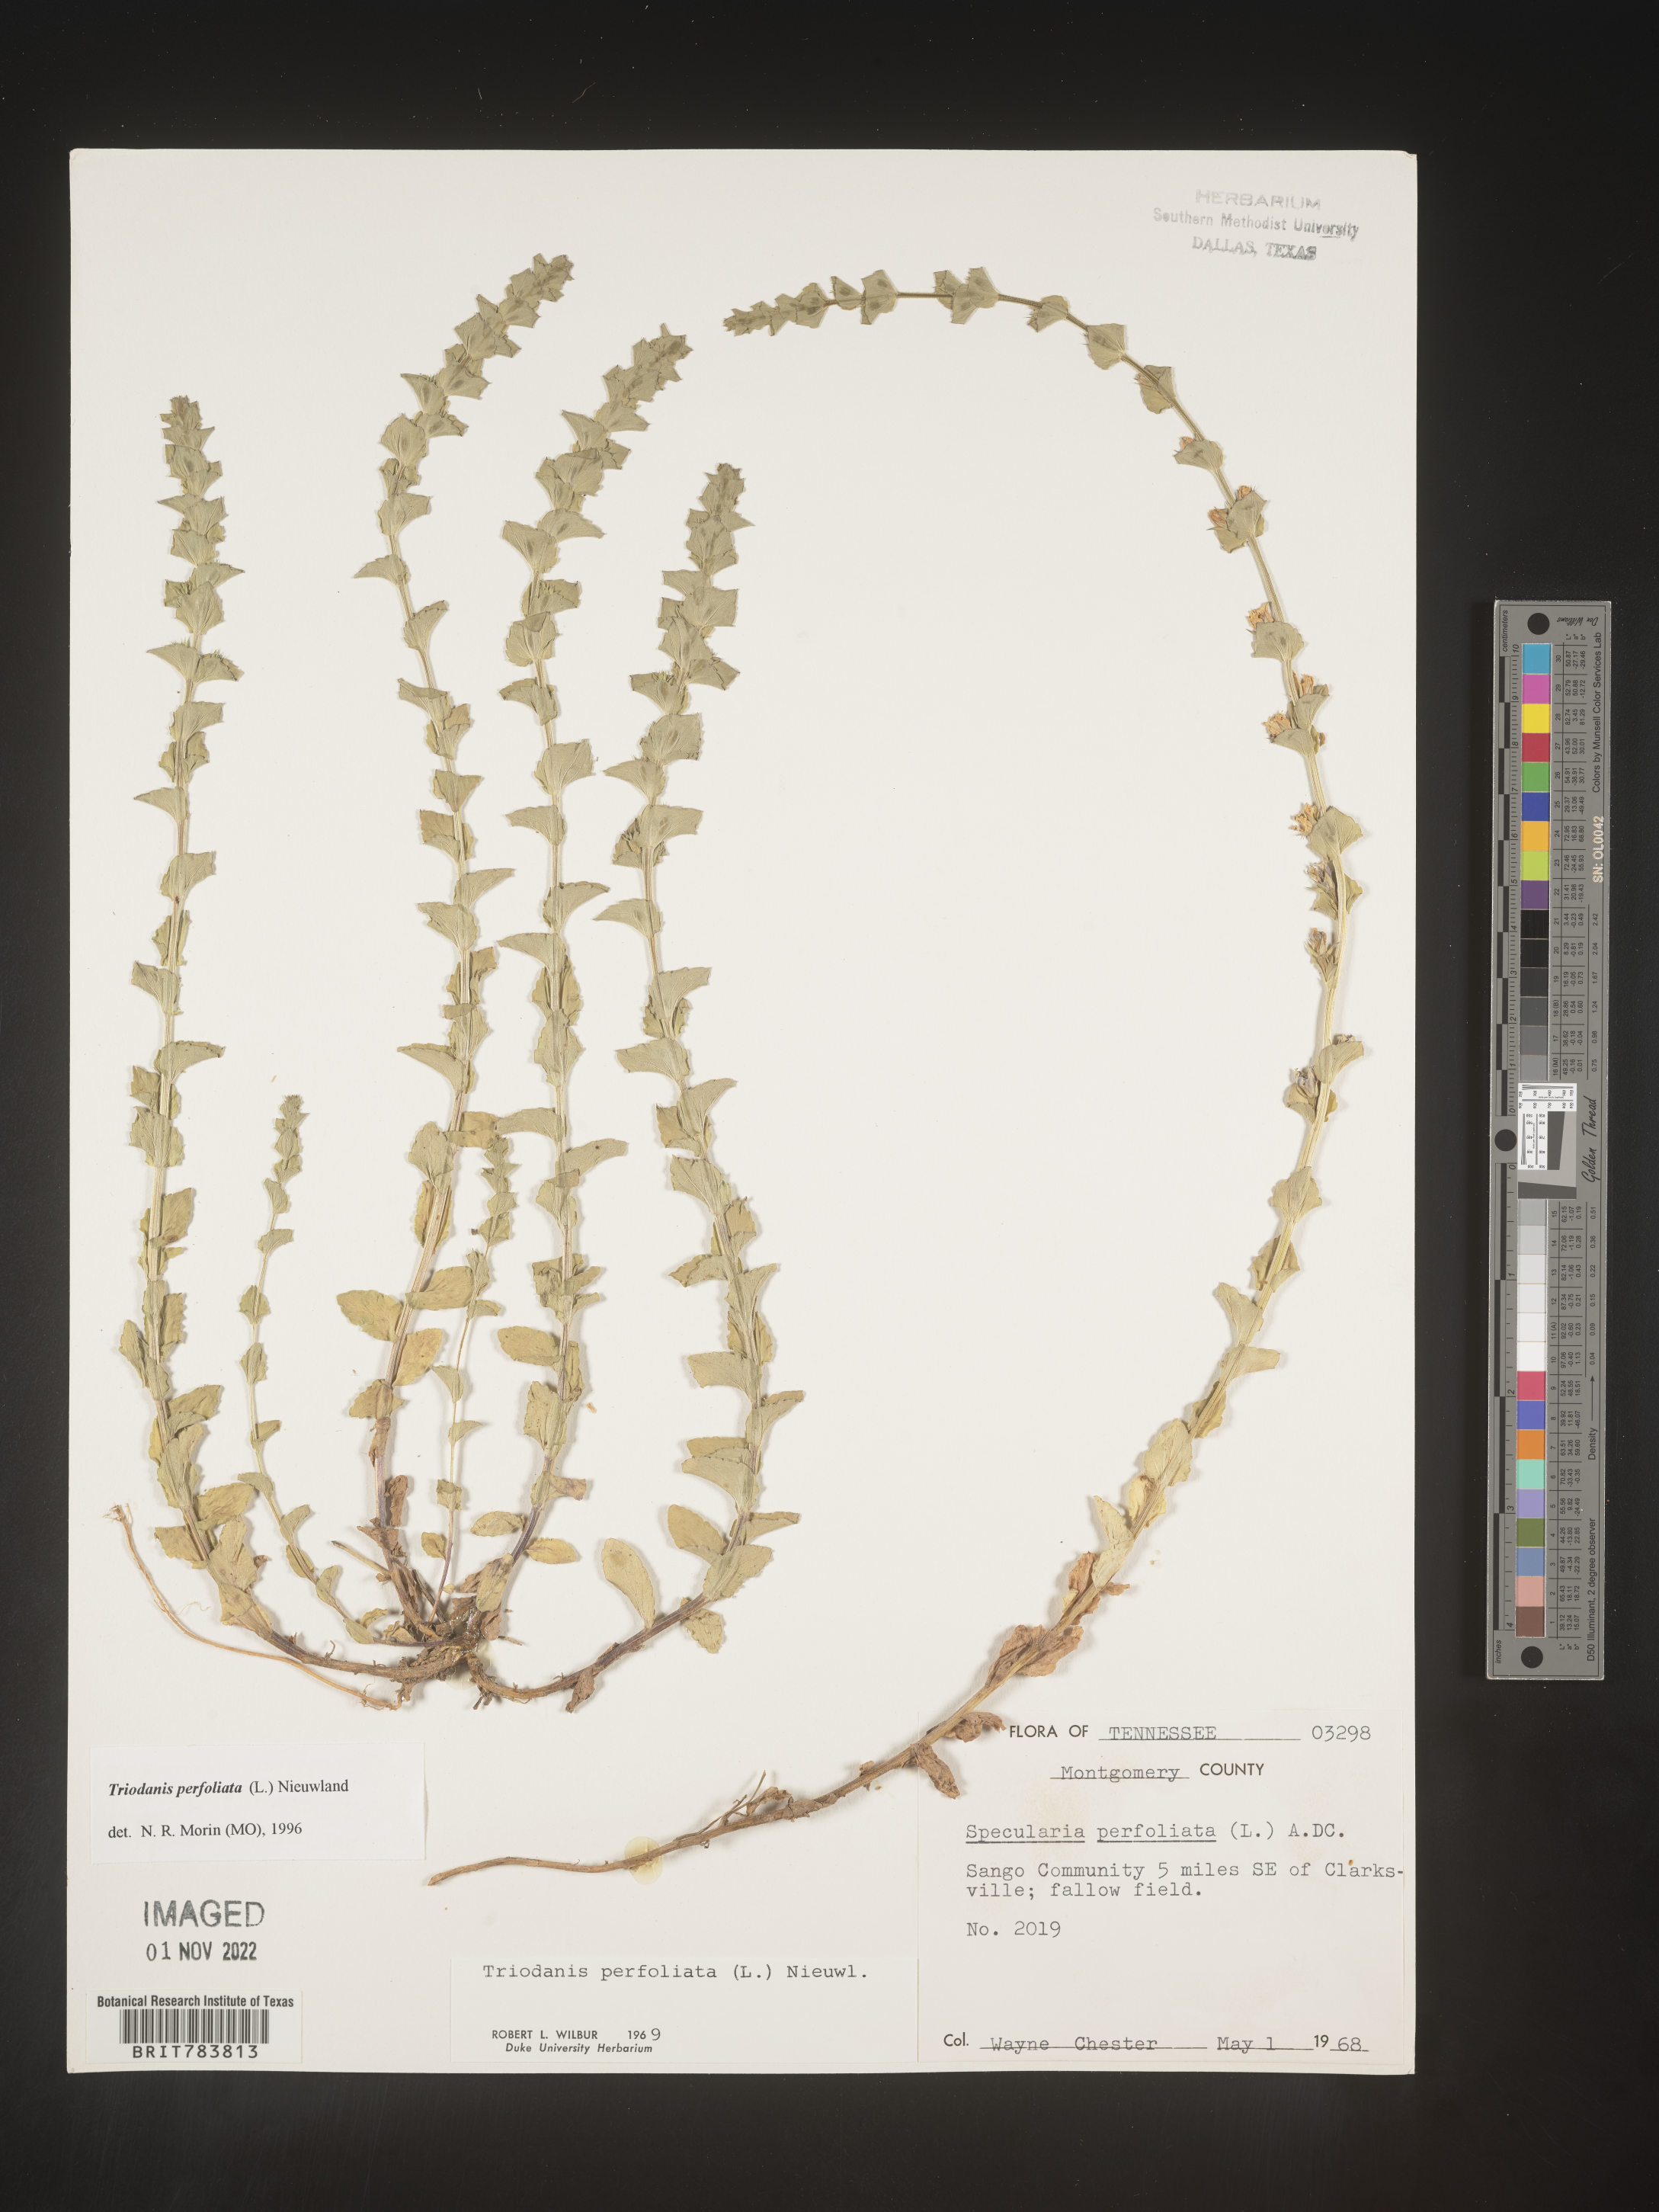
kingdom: Plantae
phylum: Tracheophyta
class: Magnoliopsida
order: Asterales
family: Campanulaceae
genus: Triodanis
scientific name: Triodanis perfoliata
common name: Clasping venus' looking-glass
